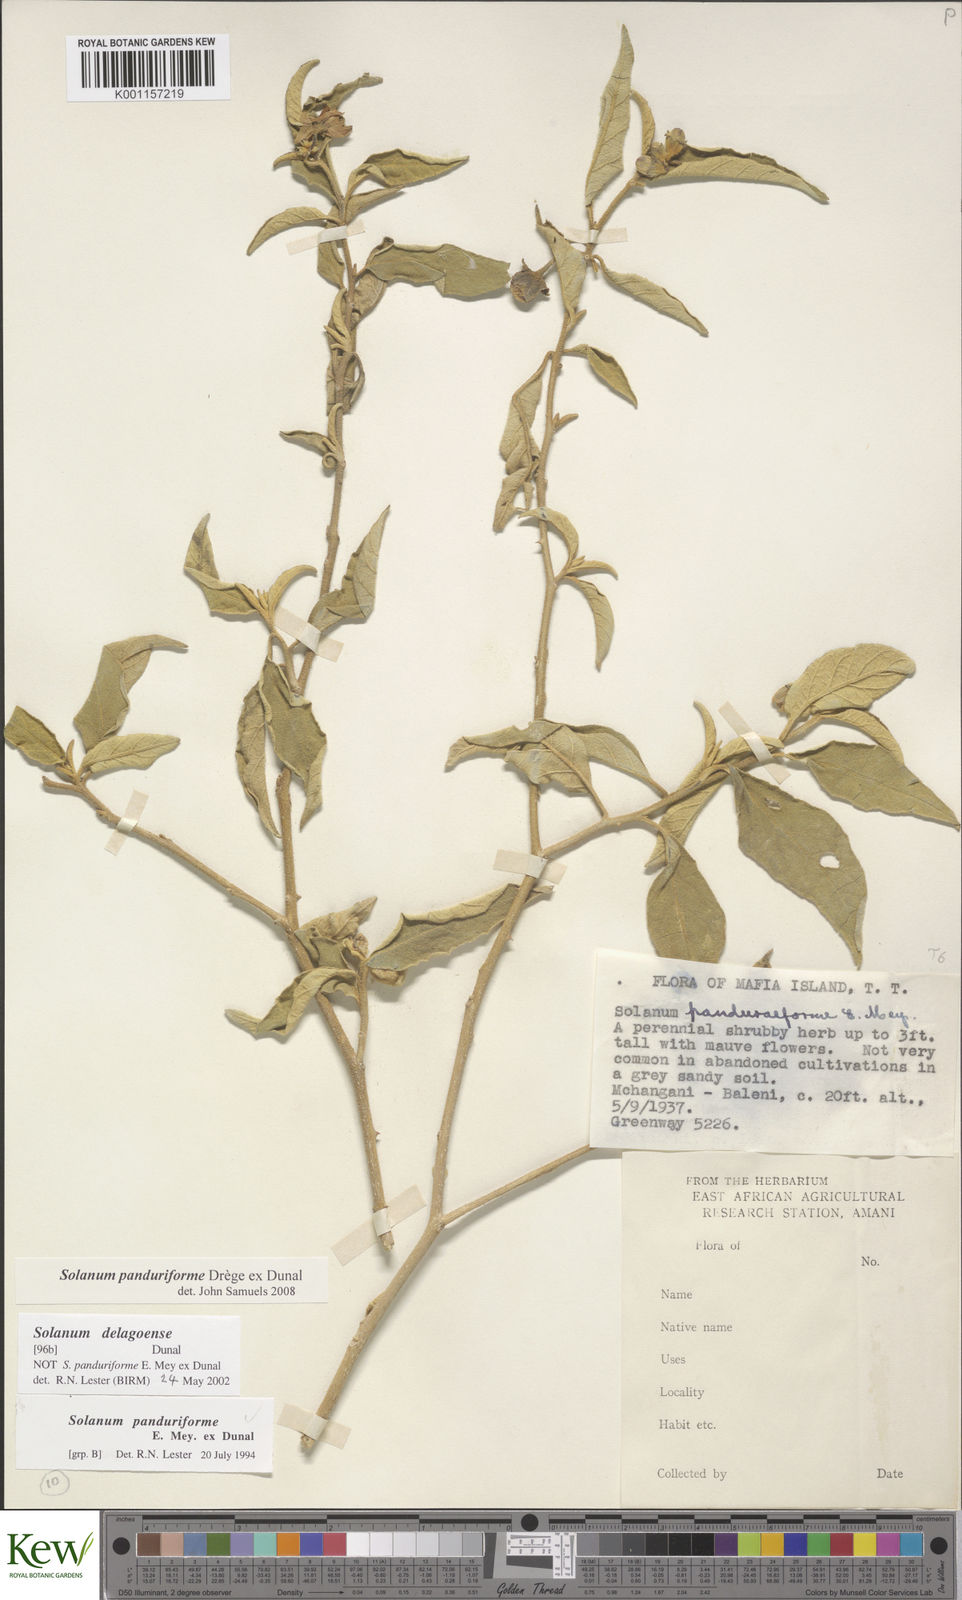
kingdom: Plantae
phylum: Tracheophyta
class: Magnoliopsida
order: Solanales
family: Solanaceae
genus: Solanum
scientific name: Solanum campylacanthum
